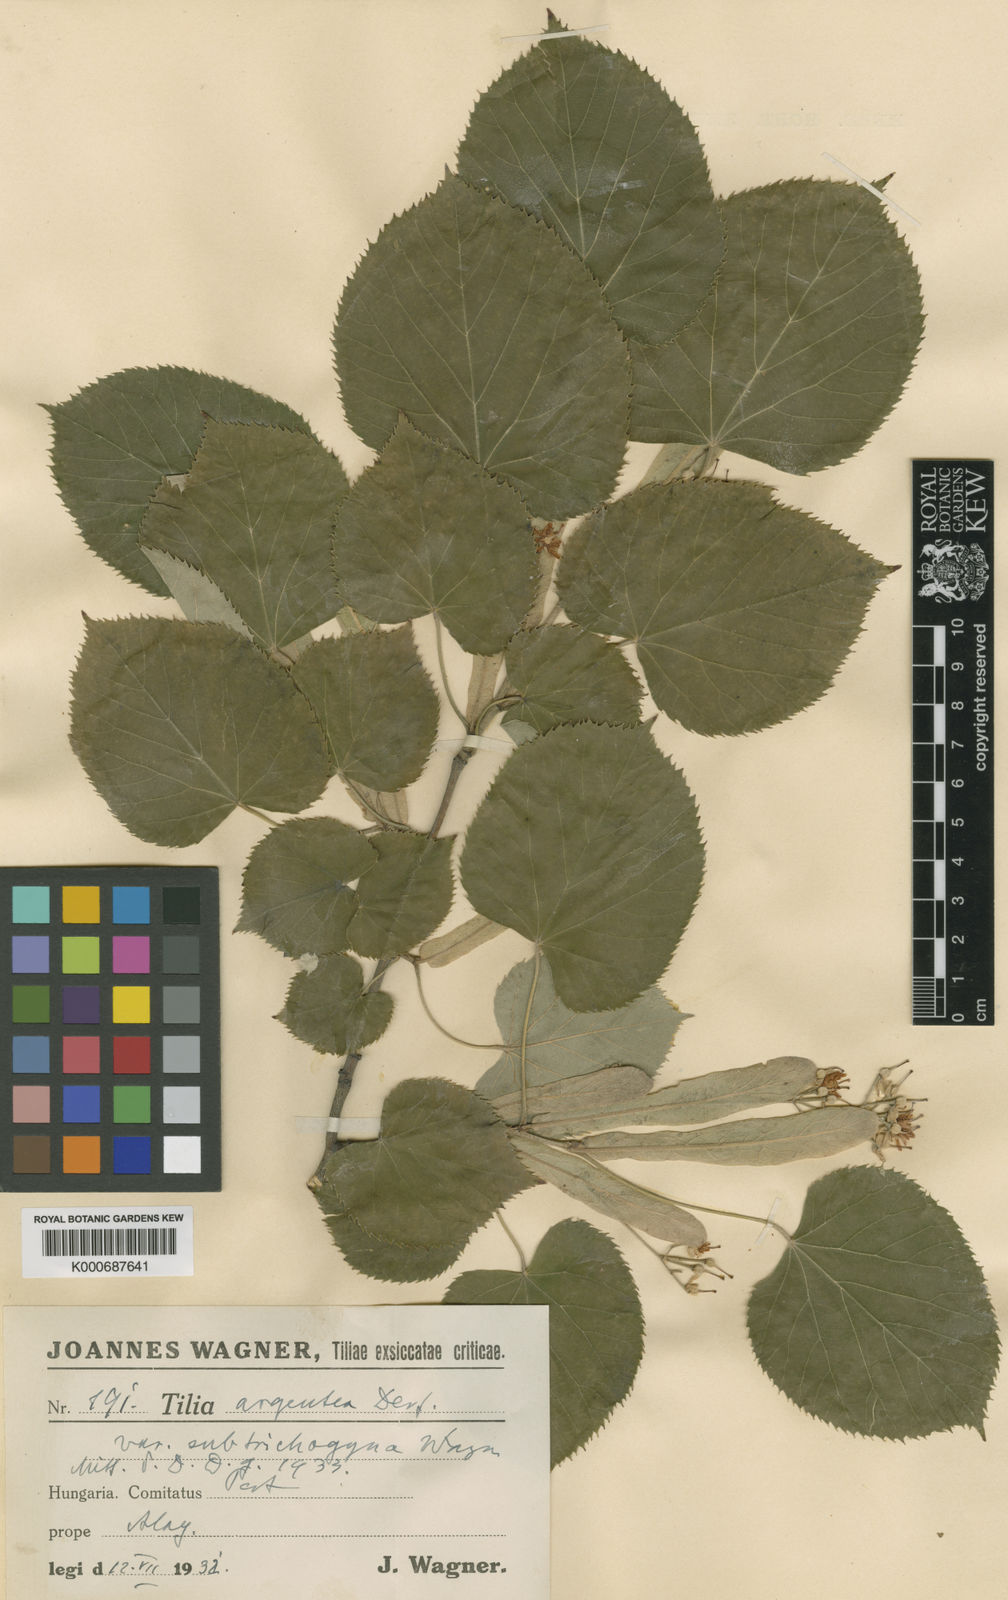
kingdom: Plantae
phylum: Tracheophyta
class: Magnoliopsida
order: Malvales
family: Malvaceae
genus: Tilia
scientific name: Tilia tomentosa
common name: Silver lime
